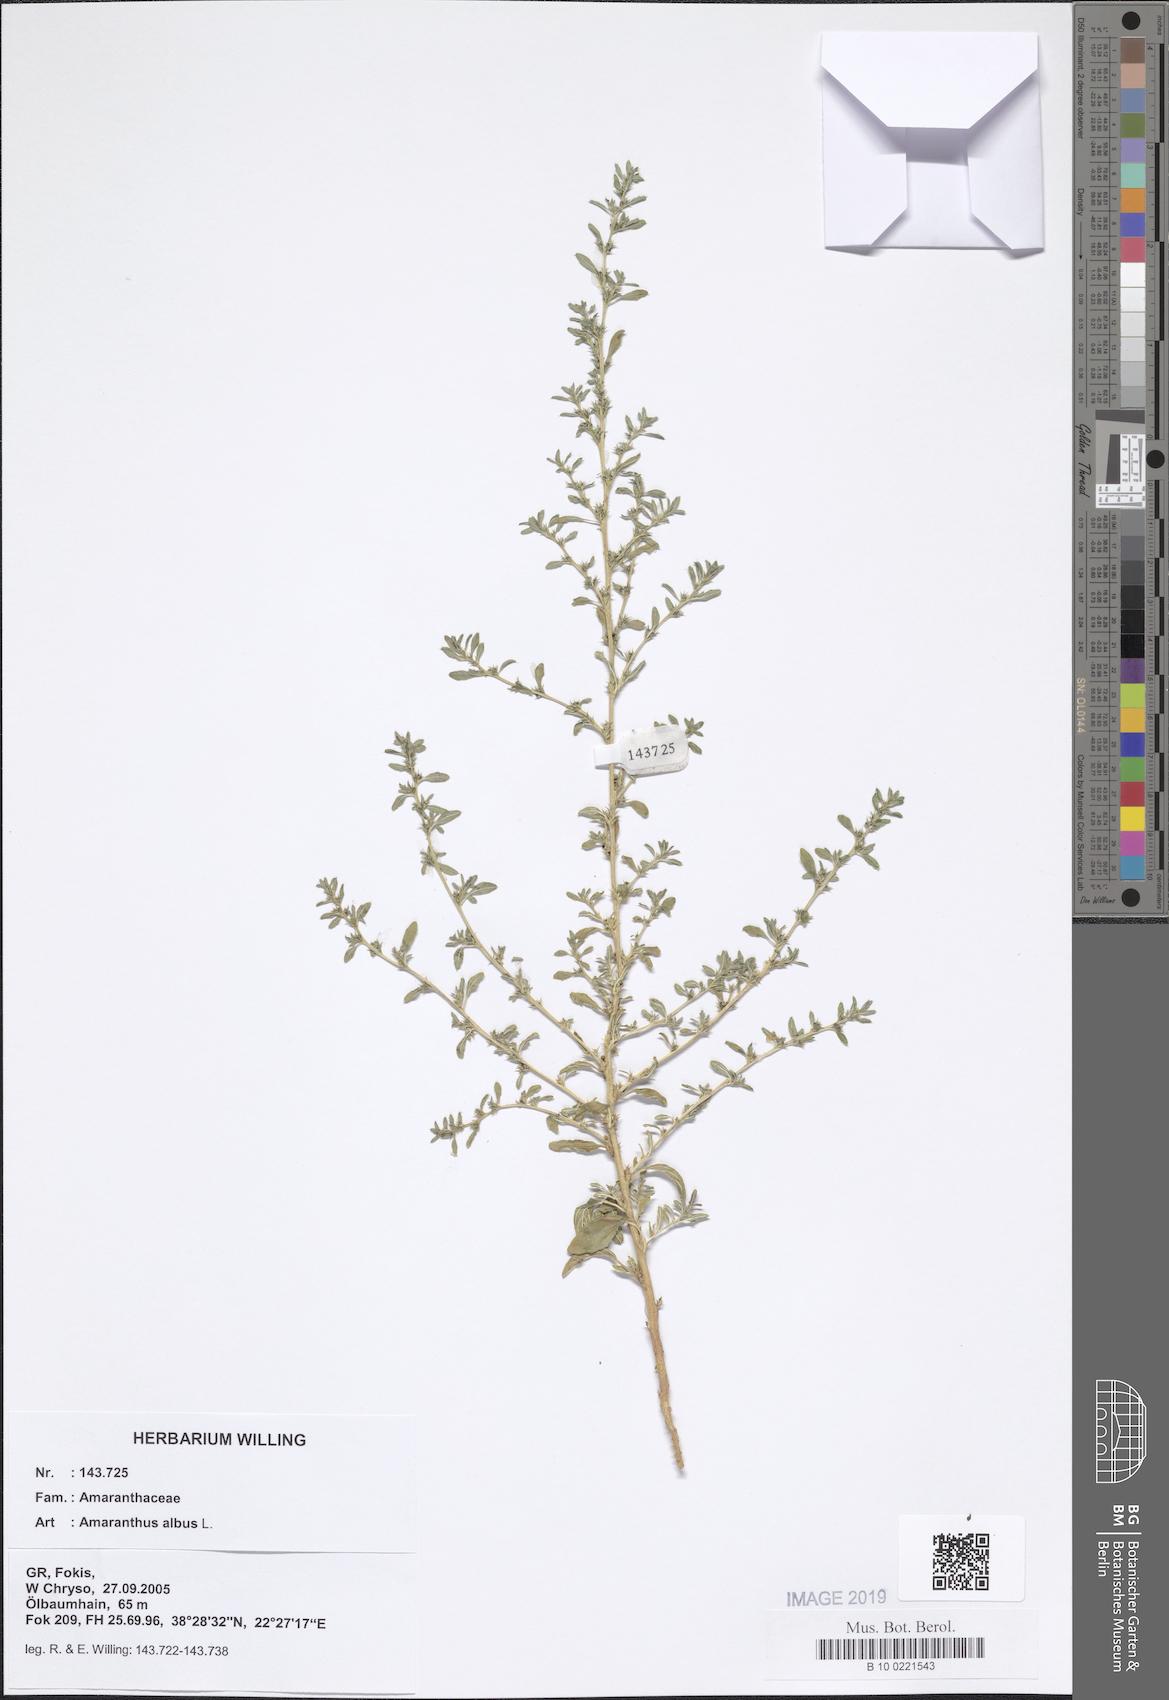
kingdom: Plantae
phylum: Tracheophyta
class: Magnoliopsida
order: Caryophyllales
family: Amaranthaceae
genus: Amaranthus
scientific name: Amaranthus albus
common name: White pigweed
